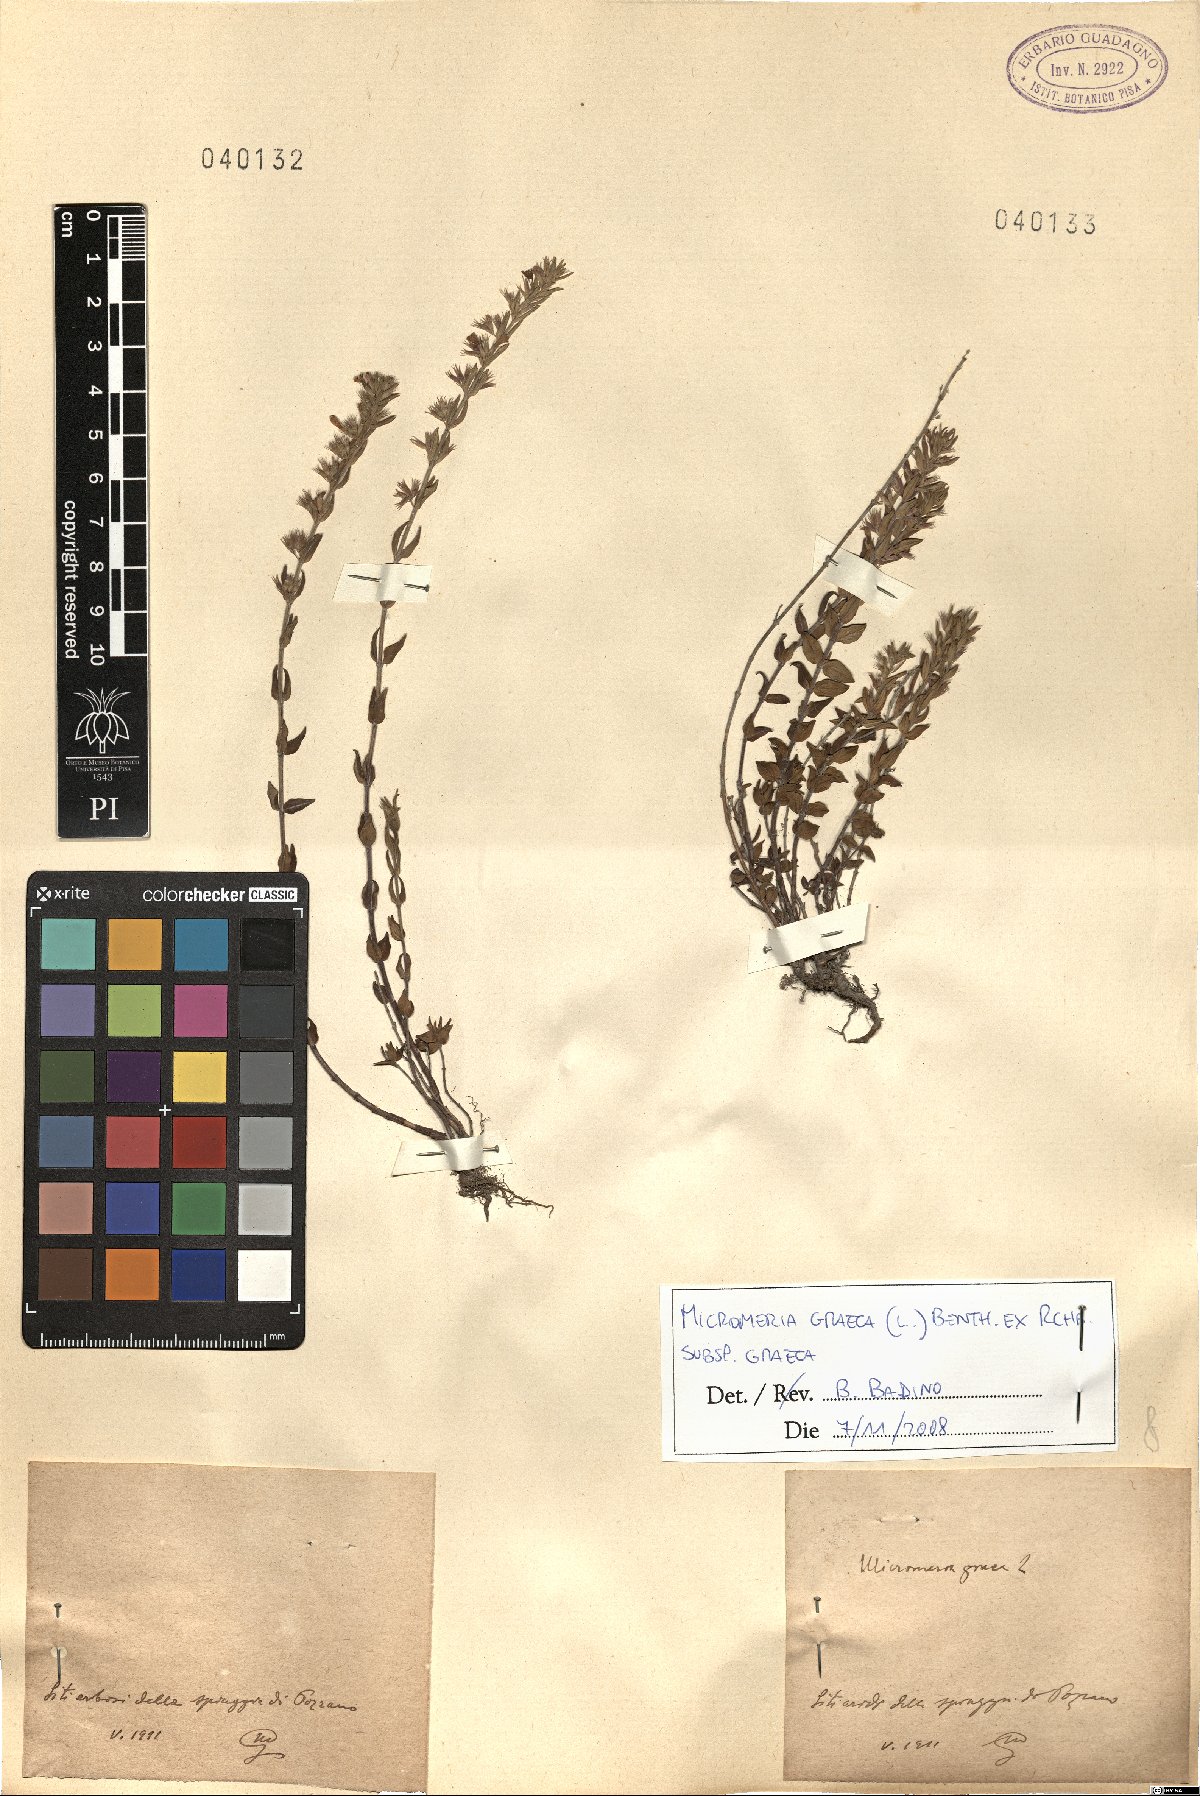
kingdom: Plantae
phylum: Tracheophyta
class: Magnoliopsida
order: Lamiales
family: Lamiaceae
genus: Micromeria
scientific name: Micromeria graeca
